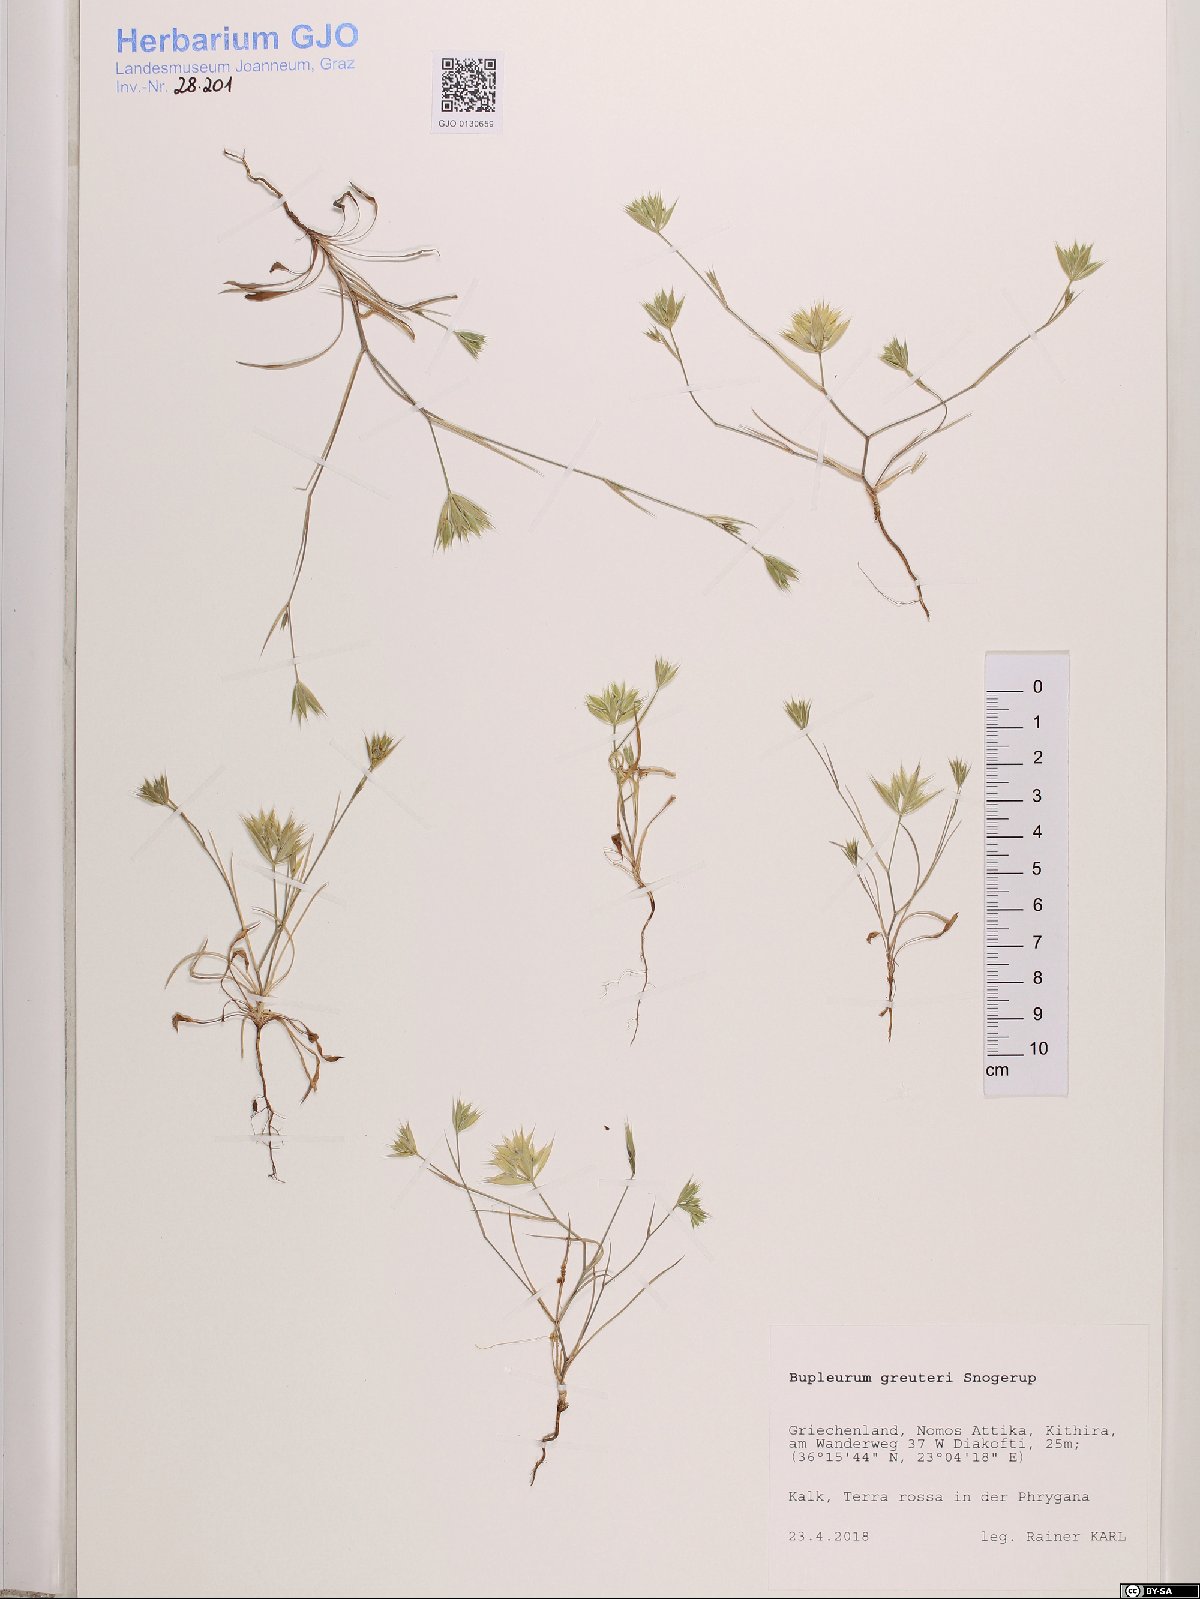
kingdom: Plantae
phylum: Tracheophyta
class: Magnoliopsida
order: Apiales
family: Apiaceae
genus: Bupleurum
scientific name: Bupleurum greuteri
